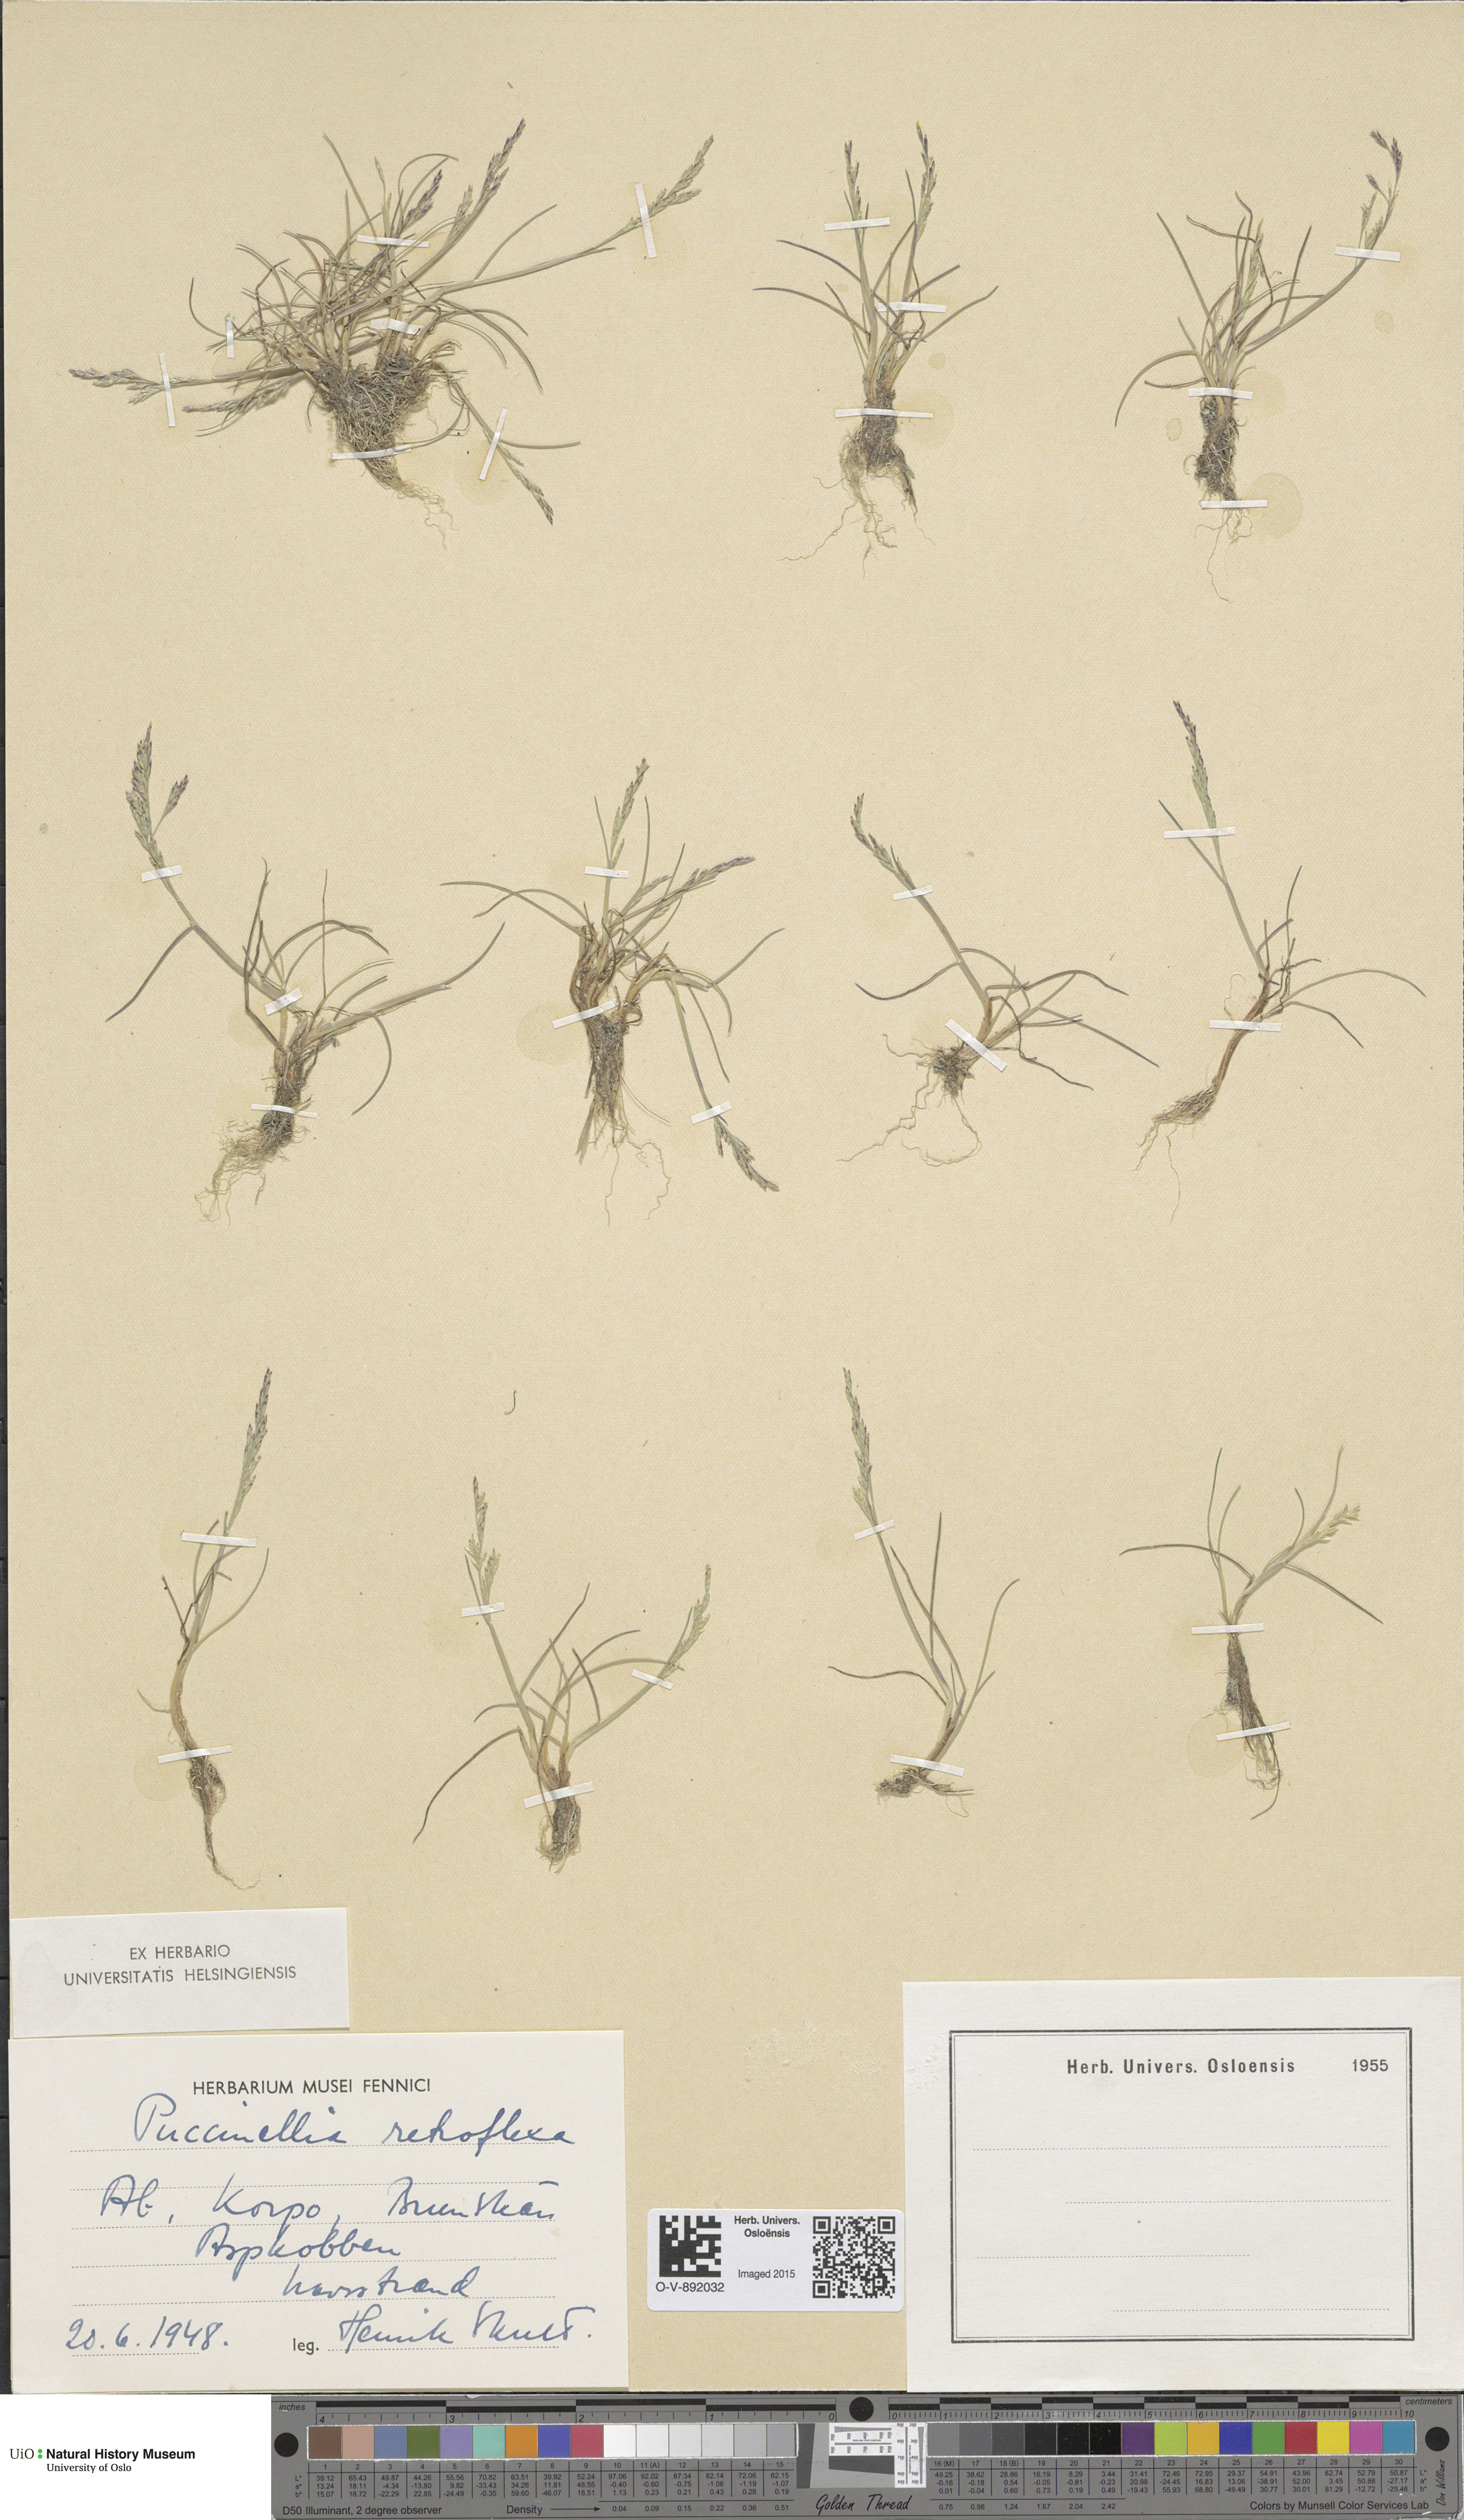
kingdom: Plantae
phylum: Tracheophyta
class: Liliopsida
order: Poales
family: Poaceae
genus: Puccinellia
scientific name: Puccinellia distans
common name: Weeping alkaligrass
